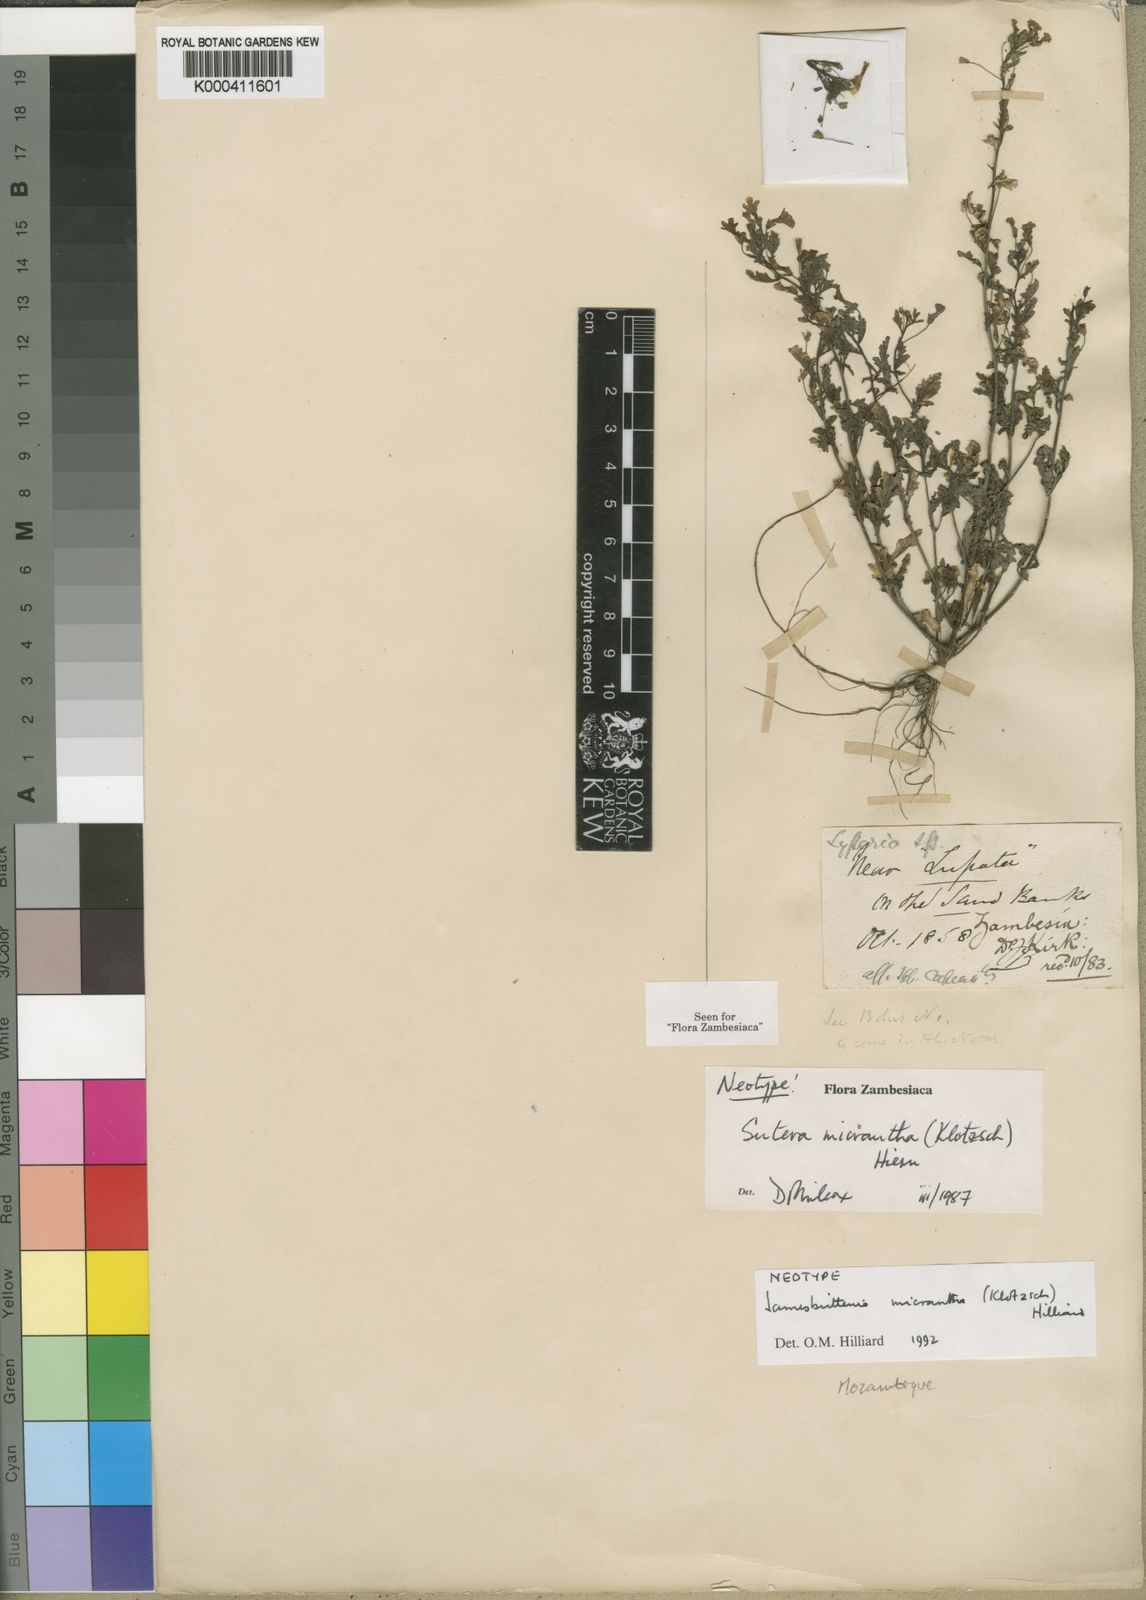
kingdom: Plantae
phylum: Tracheophyta
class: Magnoliopsida
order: Lamiales
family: Scrophulariaceae
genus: Jamesbrittenia
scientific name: Jamesbrittenia micrantha
